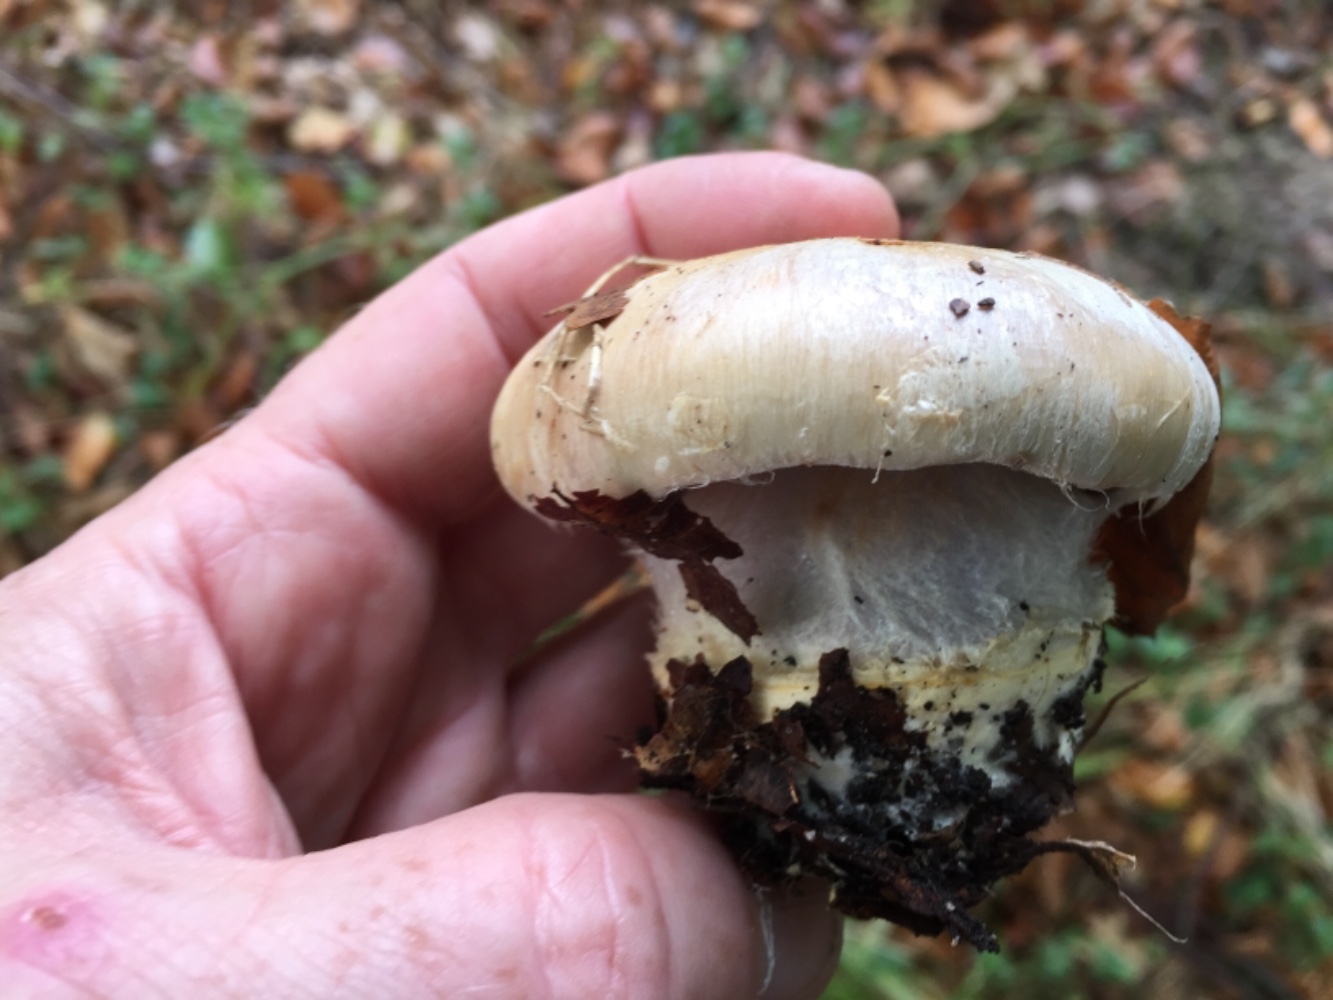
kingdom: Fungi
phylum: Basidiomycota
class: Agaricomycetes
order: Agaricales
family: Cortinariaceae
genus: Cortinarius
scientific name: Cortinarius foetens
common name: stribet slørhat
